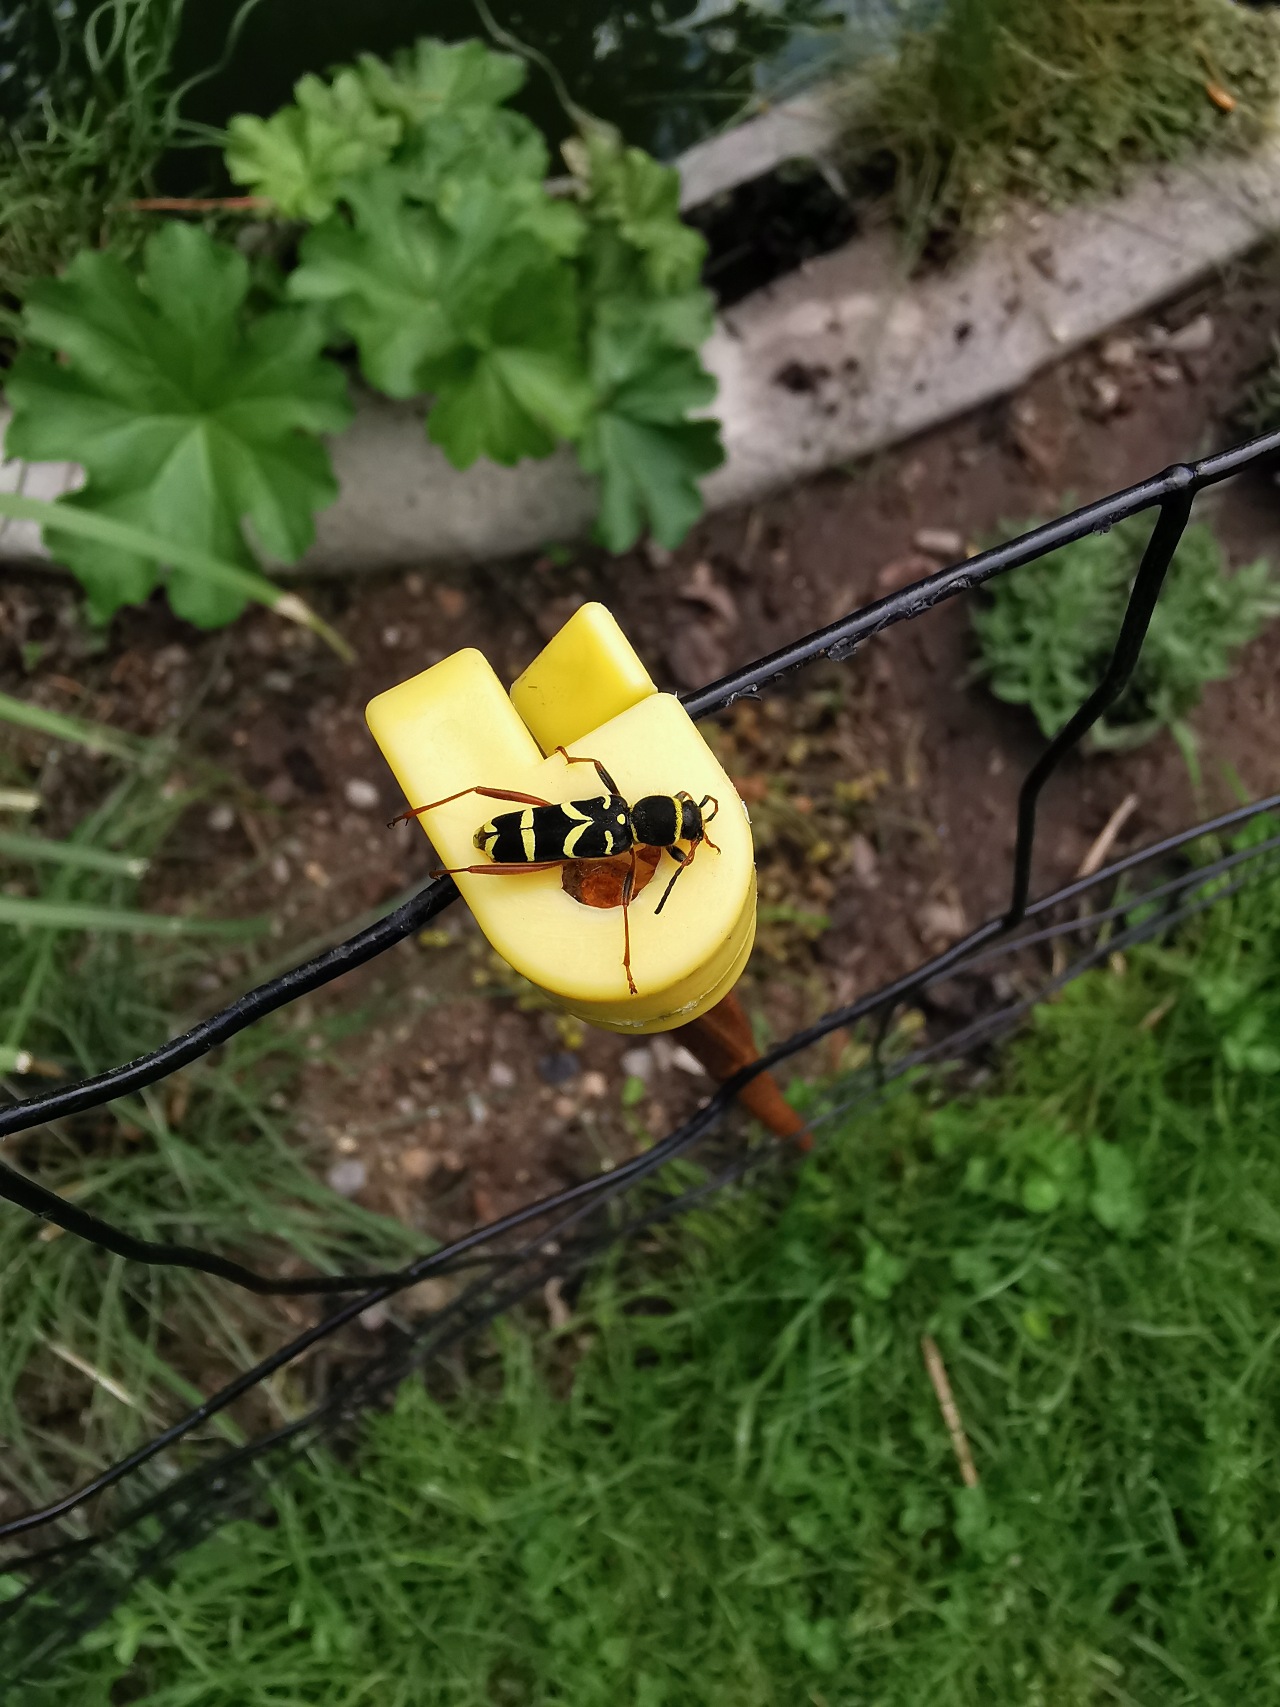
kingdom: Animalia
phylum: Arthropoda
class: Insecta
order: Coleoptera
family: Cerambycidae
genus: Clytus
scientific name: Clytus arietis
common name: Lille hvepsebuk
